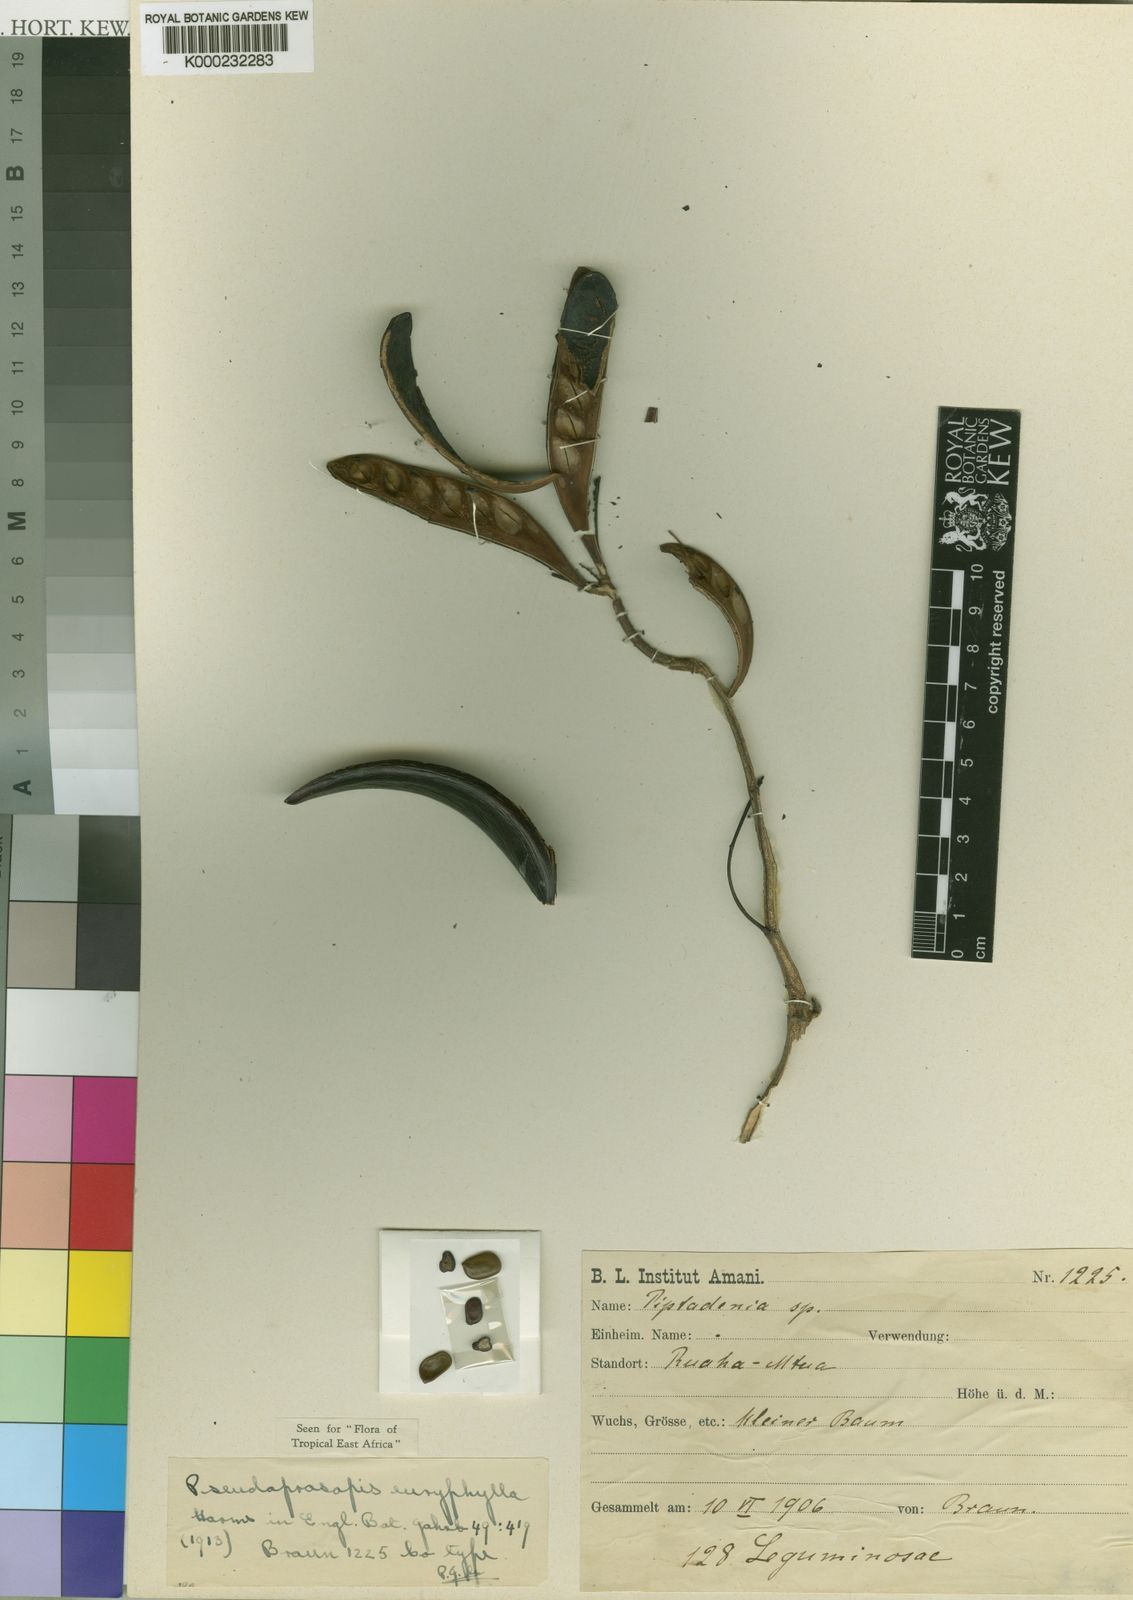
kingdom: Plantae
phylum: Tracheophyta
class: Magnoliopsida
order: Fabales
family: Fabaceae
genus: Pseudoprosopis
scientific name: Pseudoprosopis euryphylla
